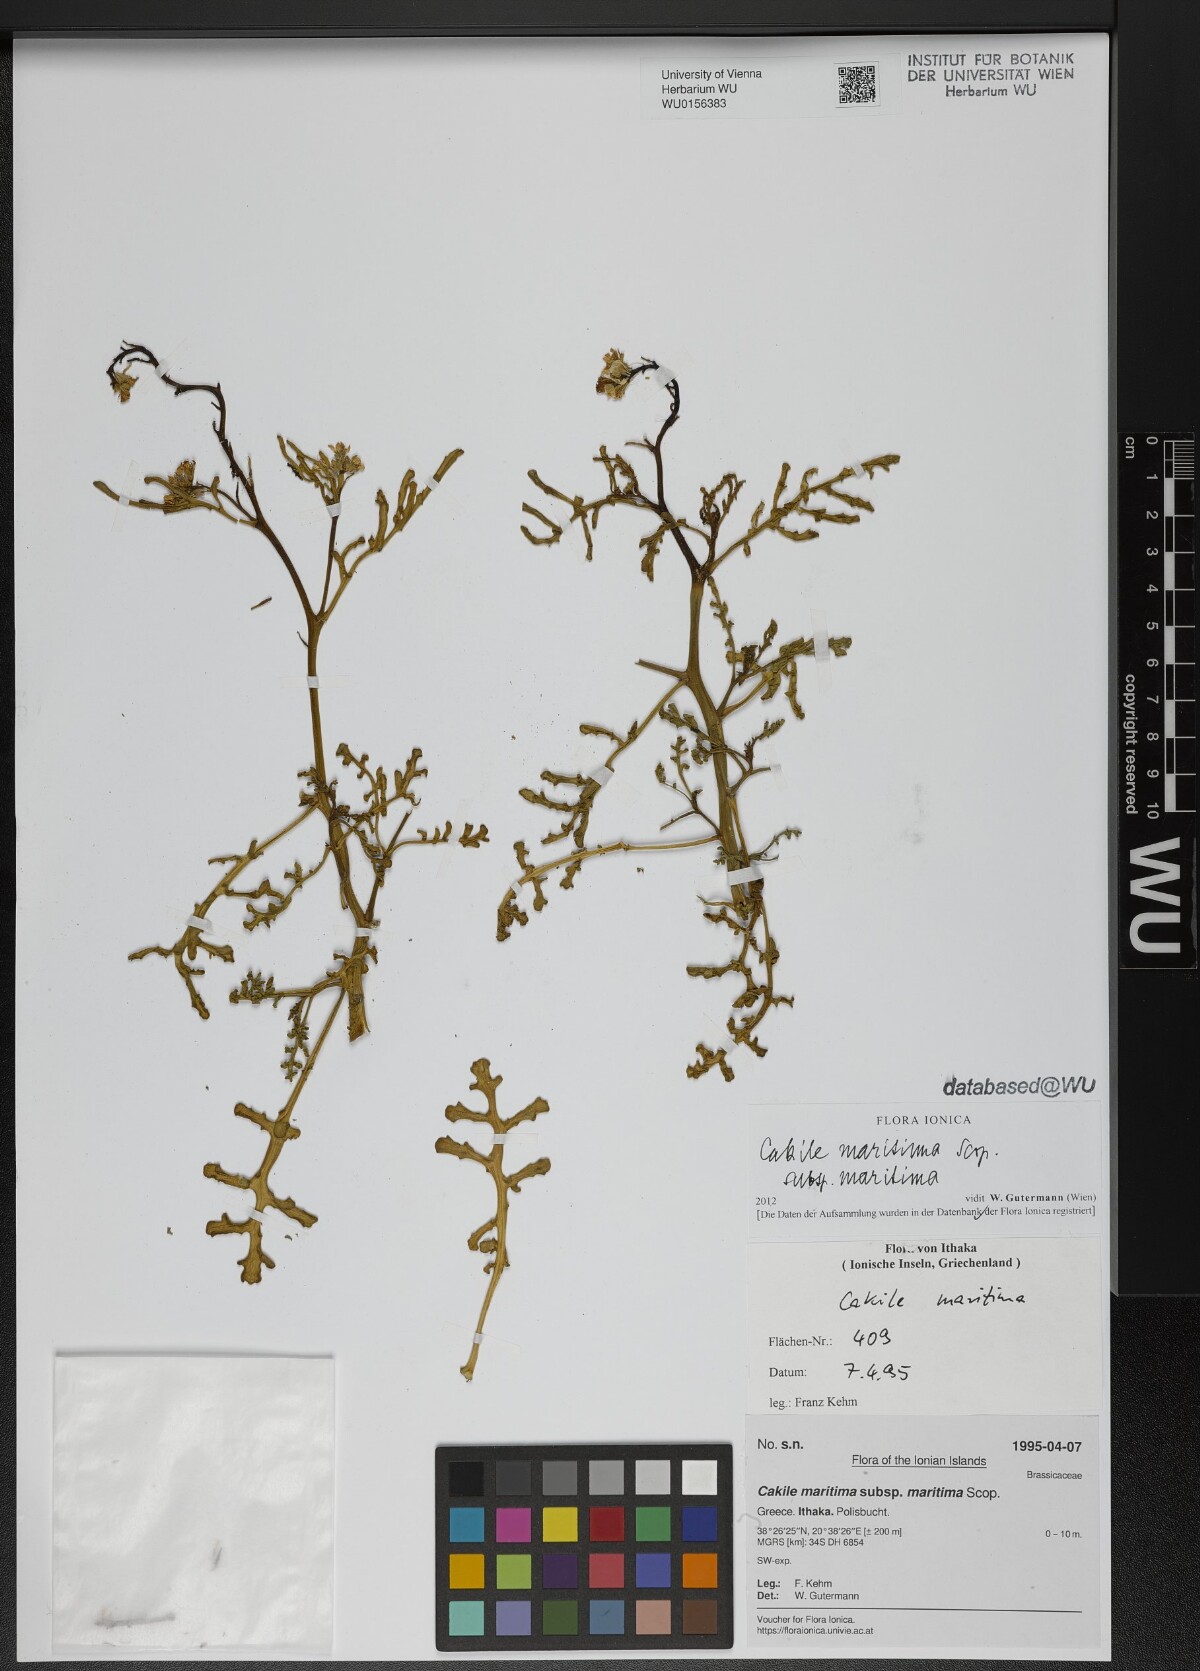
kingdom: Plantae
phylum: Tracheophyta
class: Magnoliopsida
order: Brassicales
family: Brassicaceae
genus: Cakile
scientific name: Cakile maritima
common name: Sea rocket
